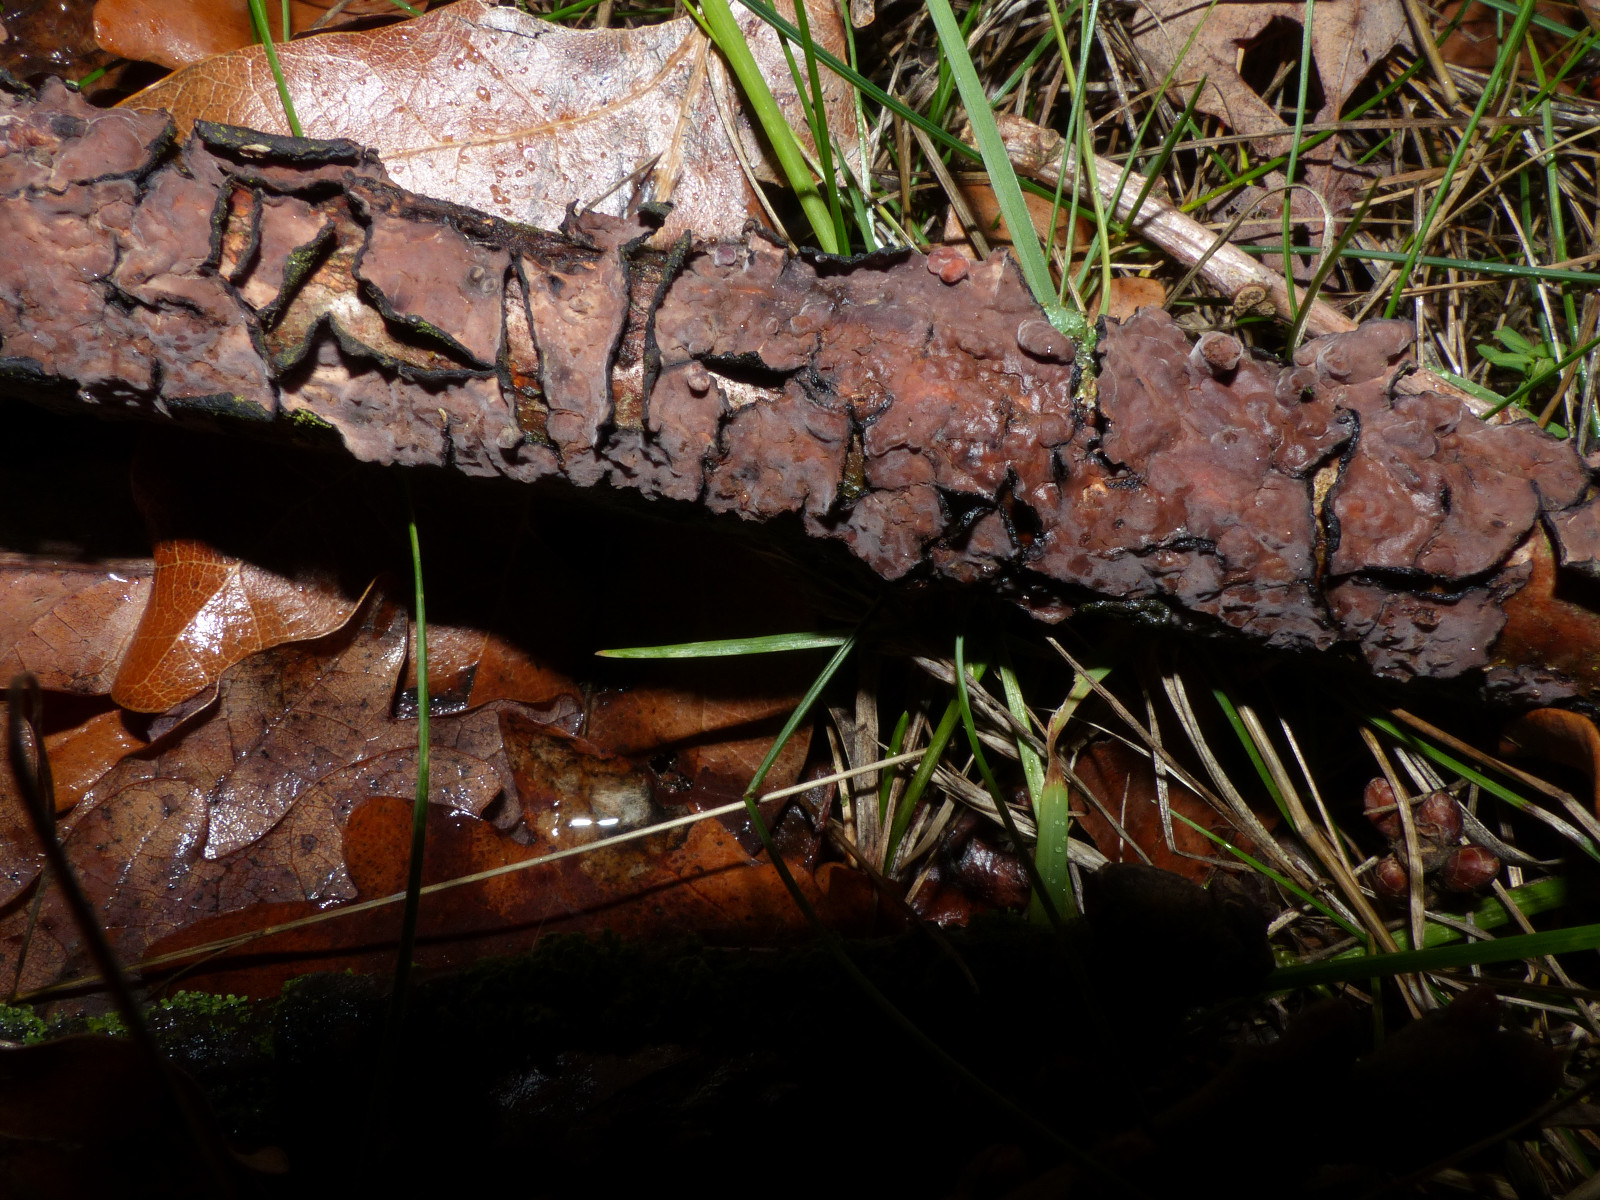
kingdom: Fungi
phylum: Basidiomycota
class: Agaricomycetes
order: Russulales
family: Peniophoraceae
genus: Peniophora
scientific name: Peniophora quercina
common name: ege-voksskind
